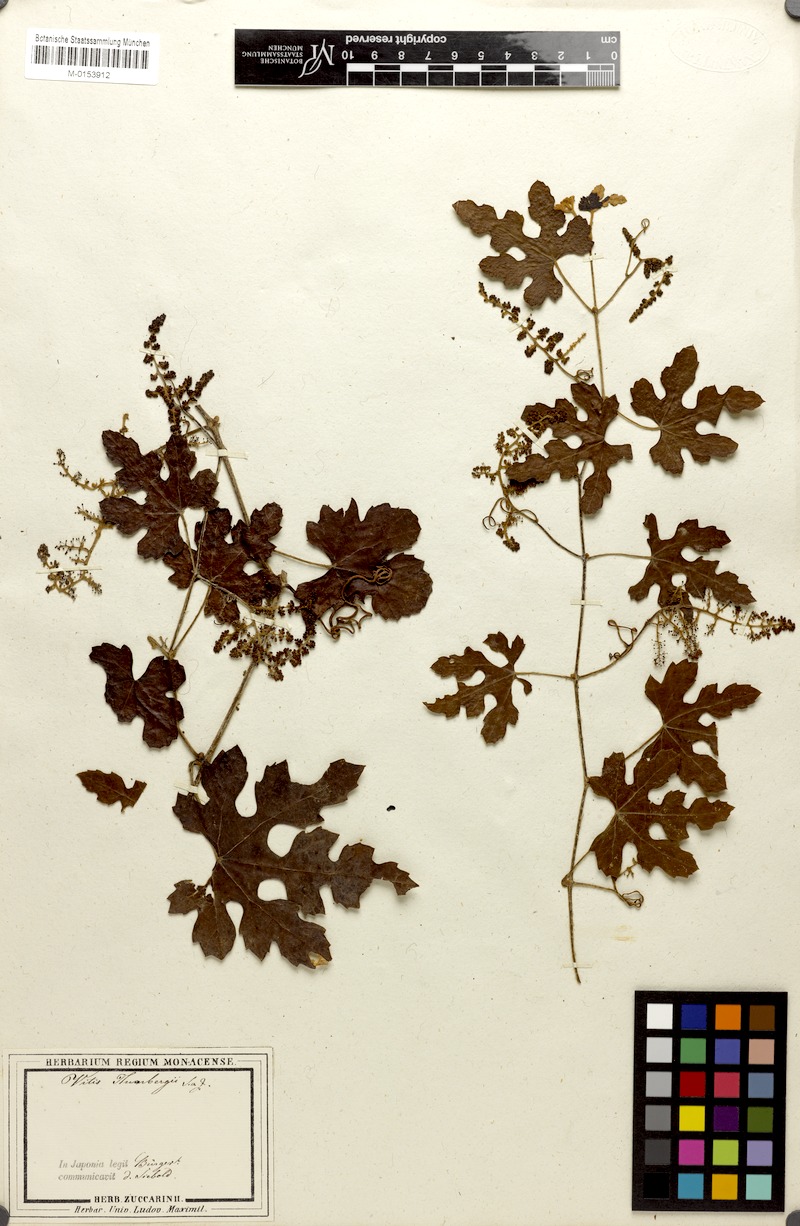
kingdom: Plantae
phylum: Tracheophyta
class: Magnoliopsida
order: Vitales
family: Vitaceae
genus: Vitis
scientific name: Vitis ficifolia
